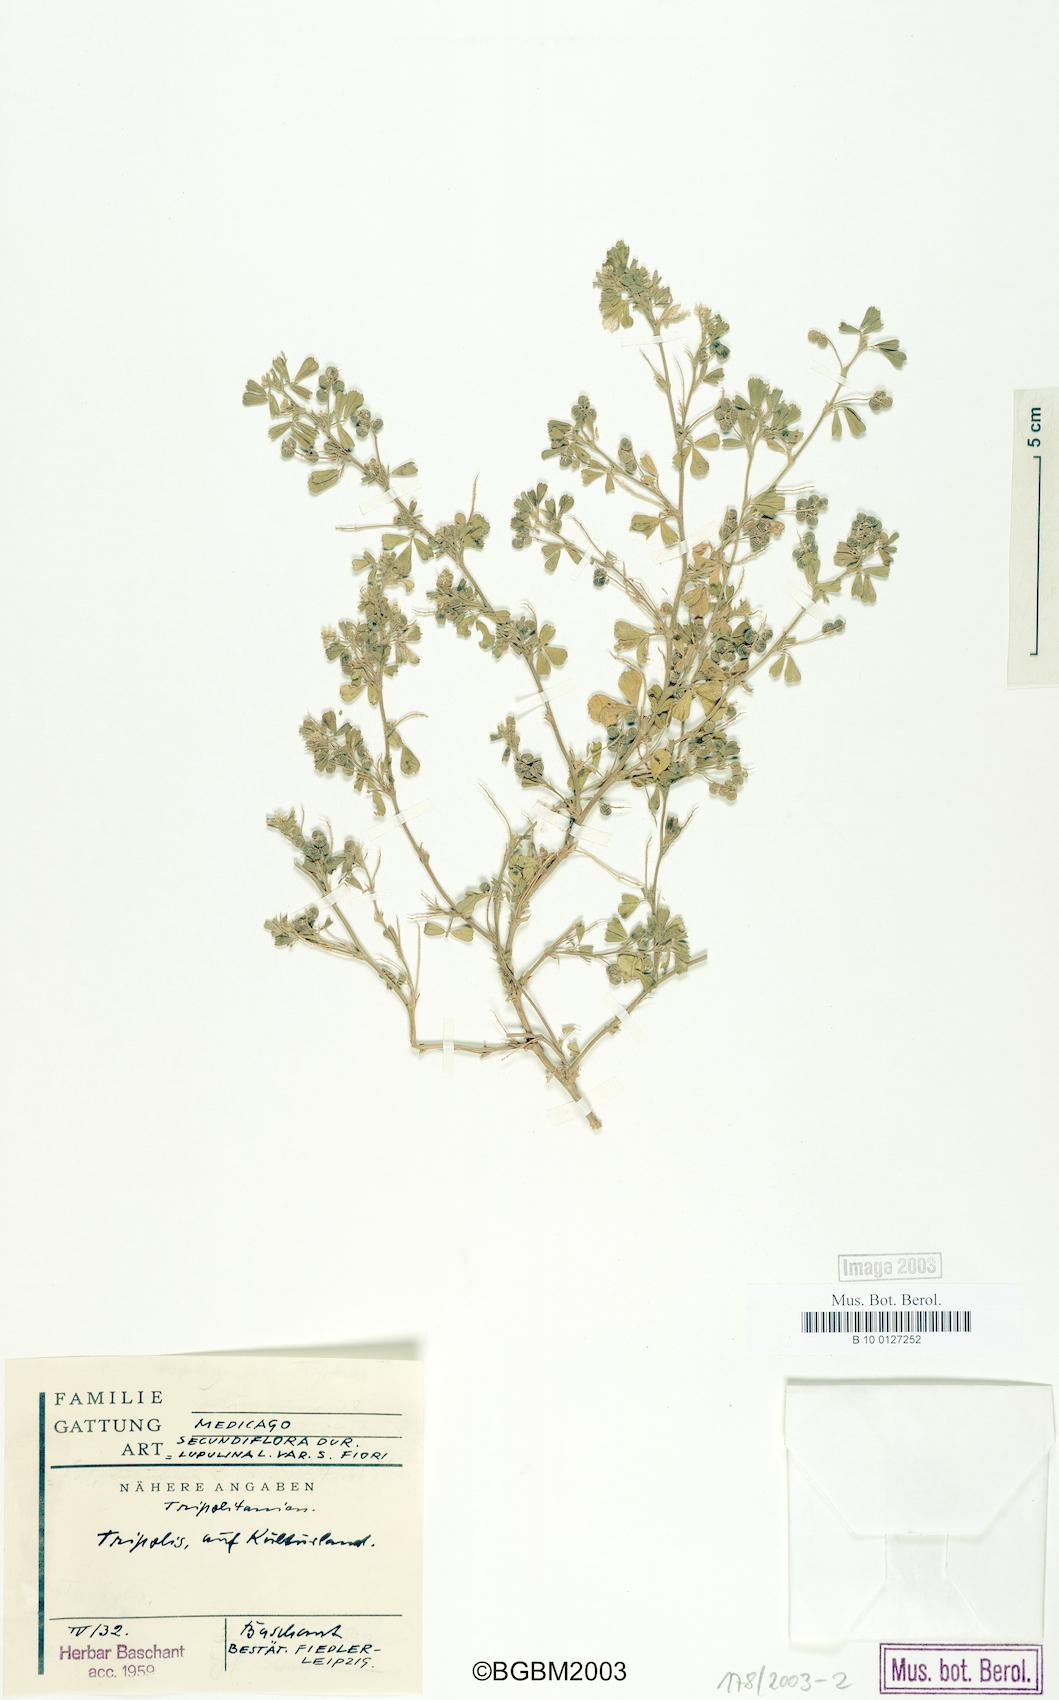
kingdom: Plantae
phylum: Tracheophyta
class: Magnoliopsida
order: Fabales
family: Fabaceae
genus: Medicago
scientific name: Medicago secundiflora
